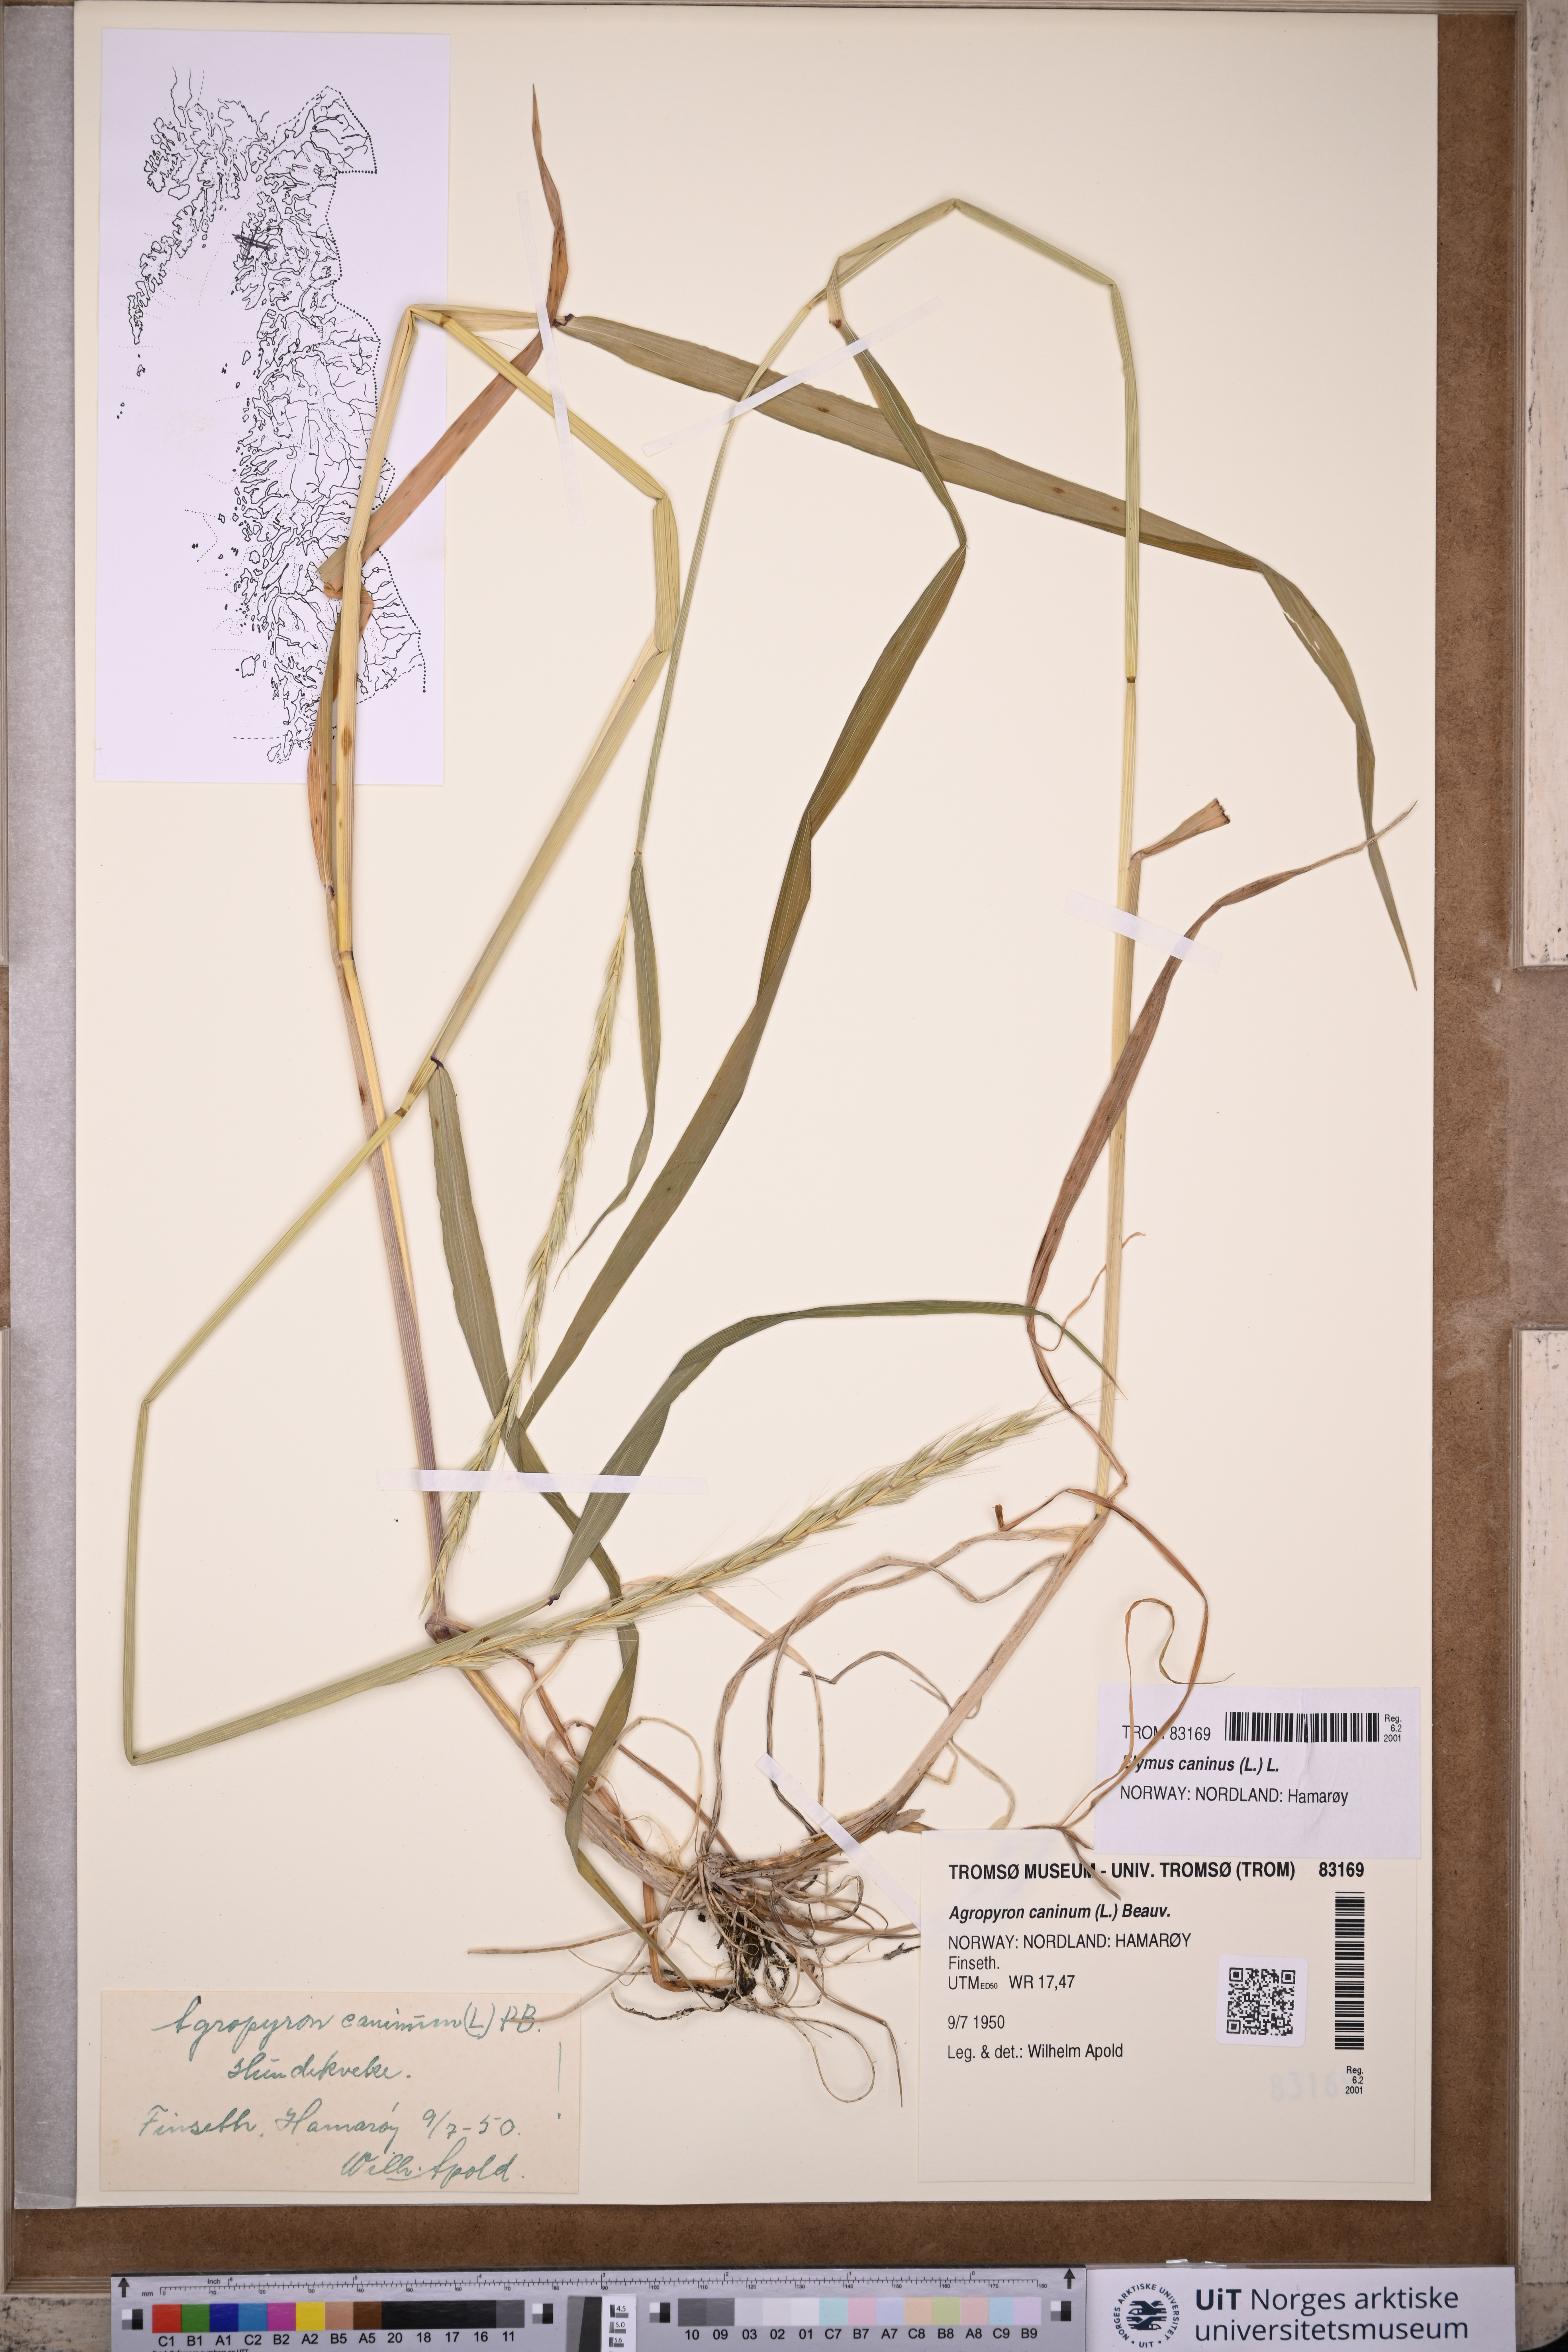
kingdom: Plantae
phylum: Tracheophyta
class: Liliopsida
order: Poales
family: Poaceae
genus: Elymus
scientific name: Elymus caninus
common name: Bearded couch
